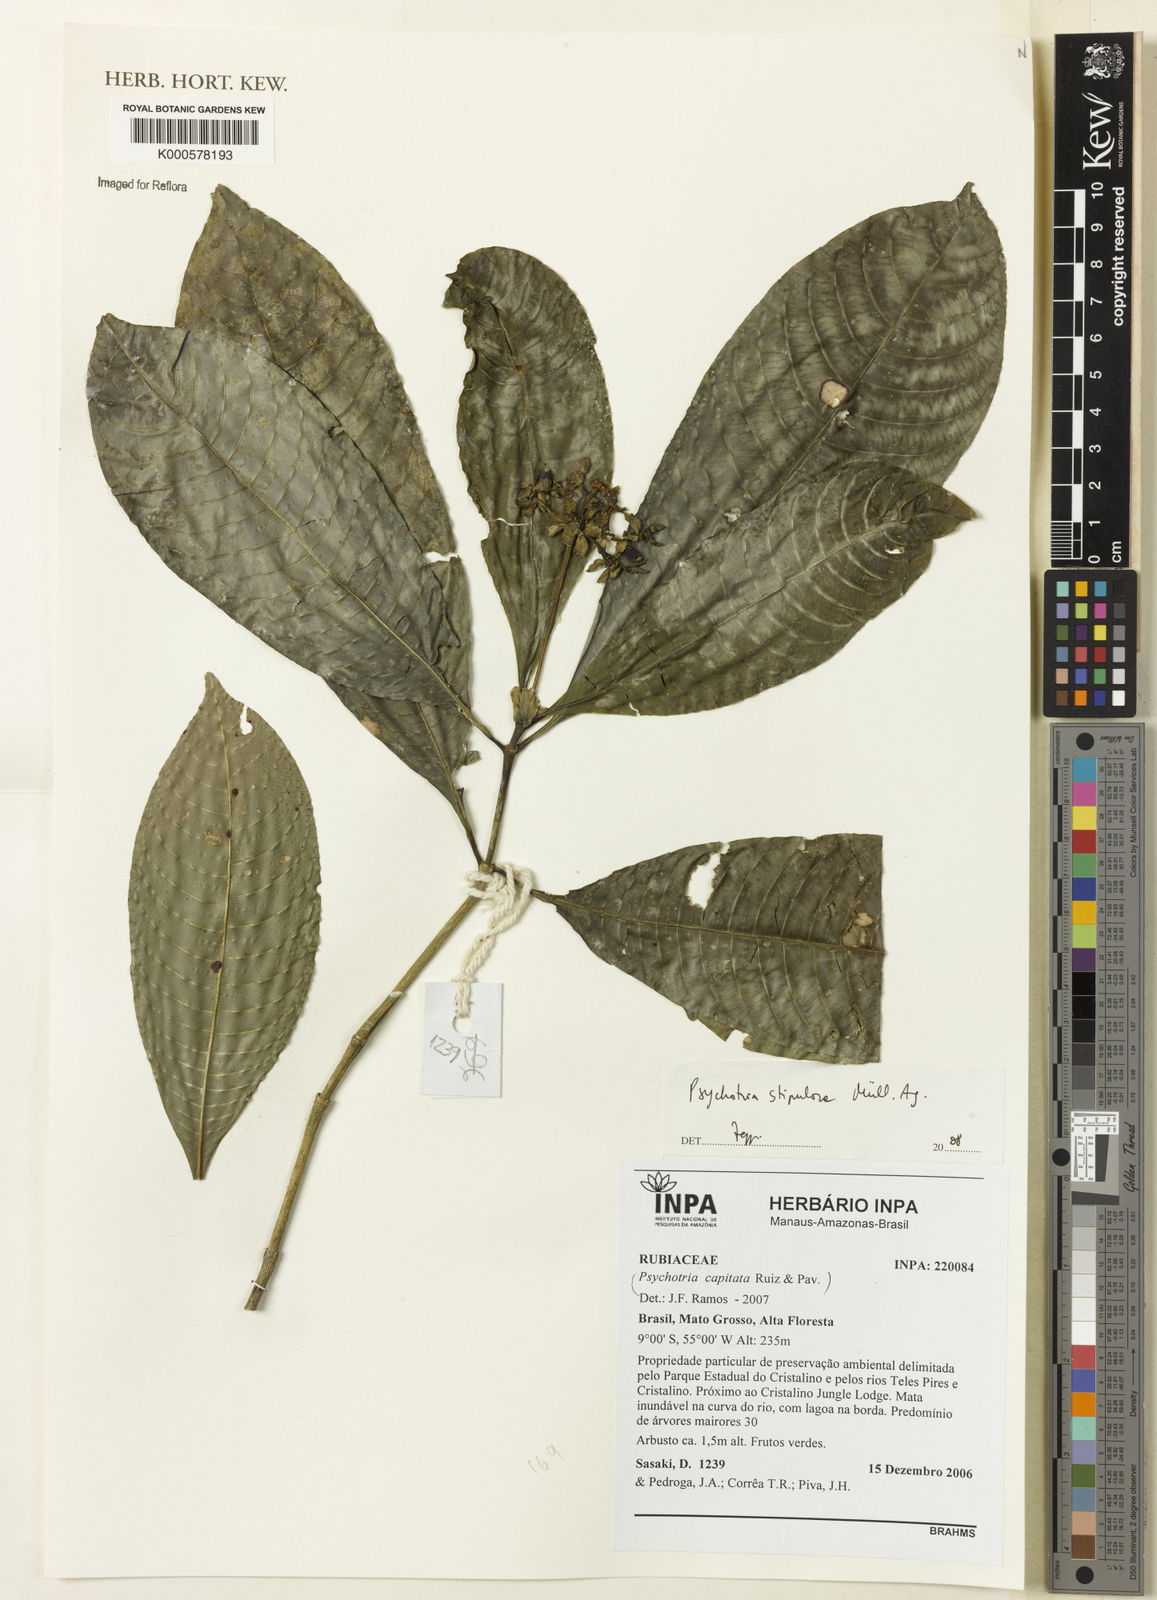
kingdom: Plantae
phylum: Tracheophyta
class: Magnoliopsida
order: Gentianales
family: Rubiaceae
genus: Psychotria
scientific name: Psychotria
